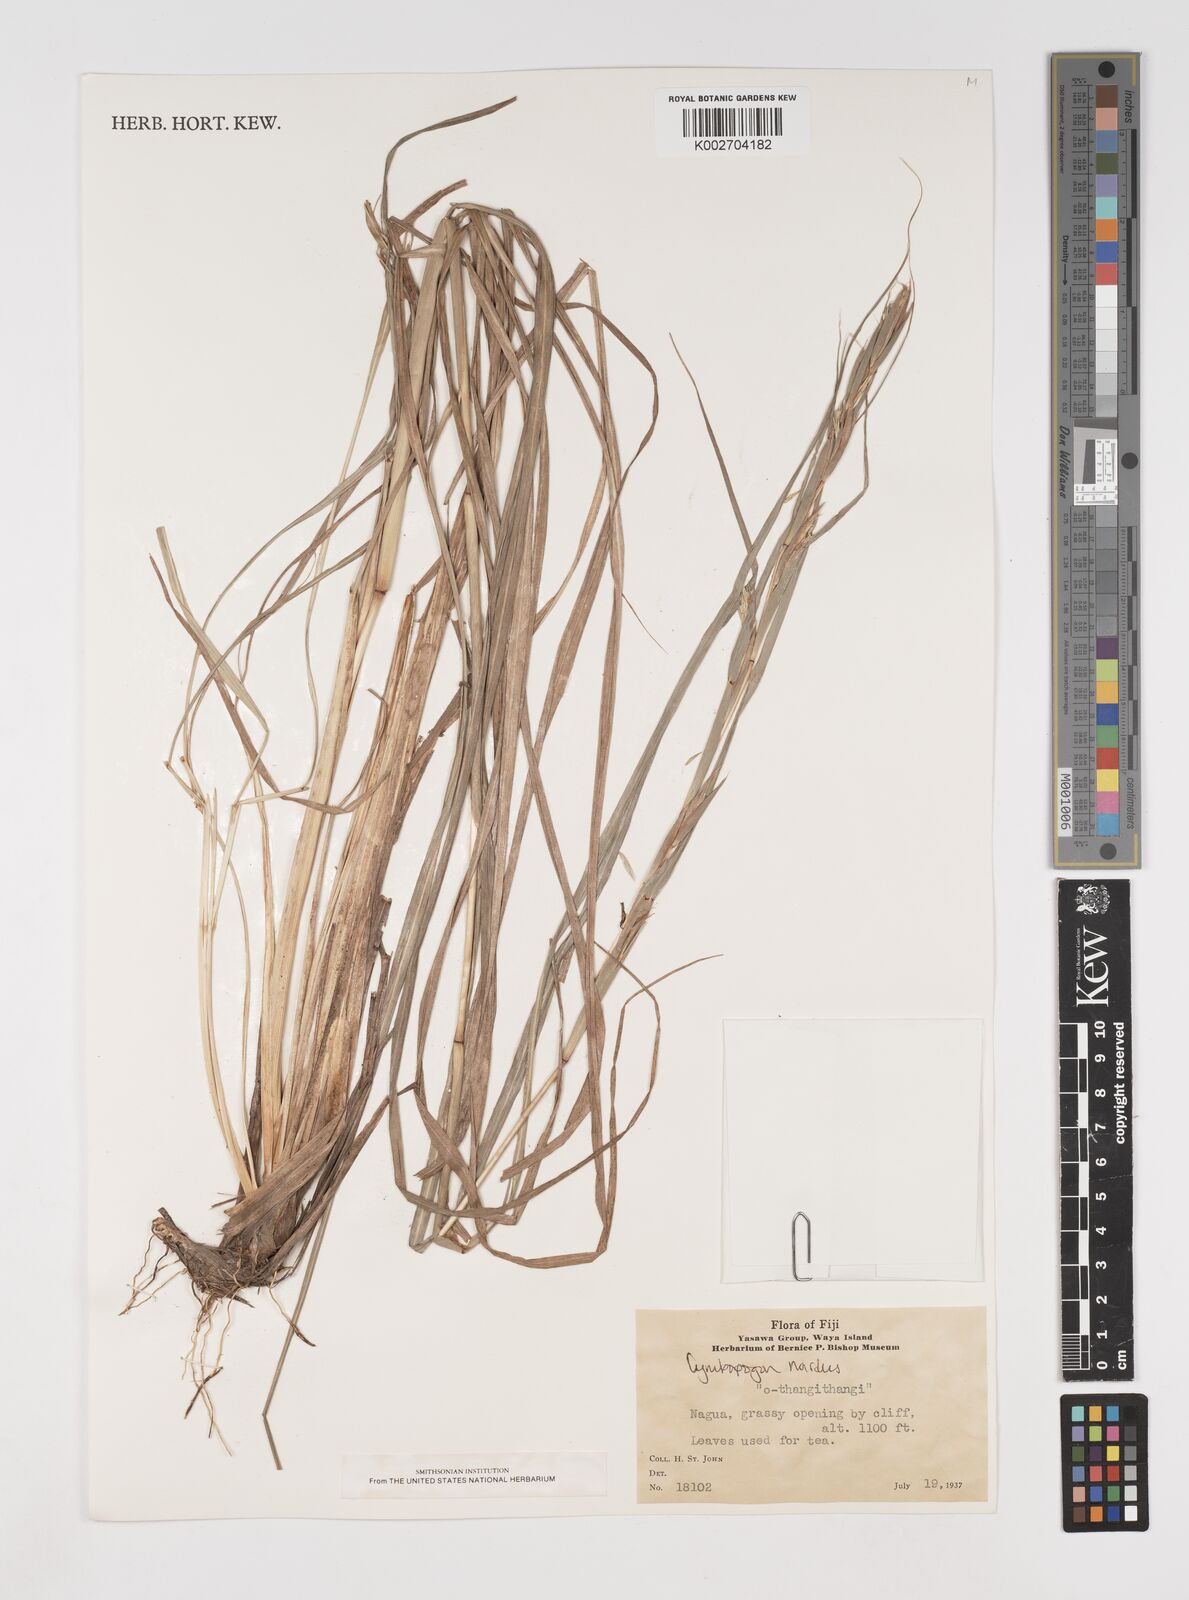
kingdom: Plantae
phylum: Tracheophyta
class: Liliopsida
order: Poales
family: Poaceae
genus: Cymbopogon
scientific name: Cymbopogon nardus
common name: Giant turpentine grass
